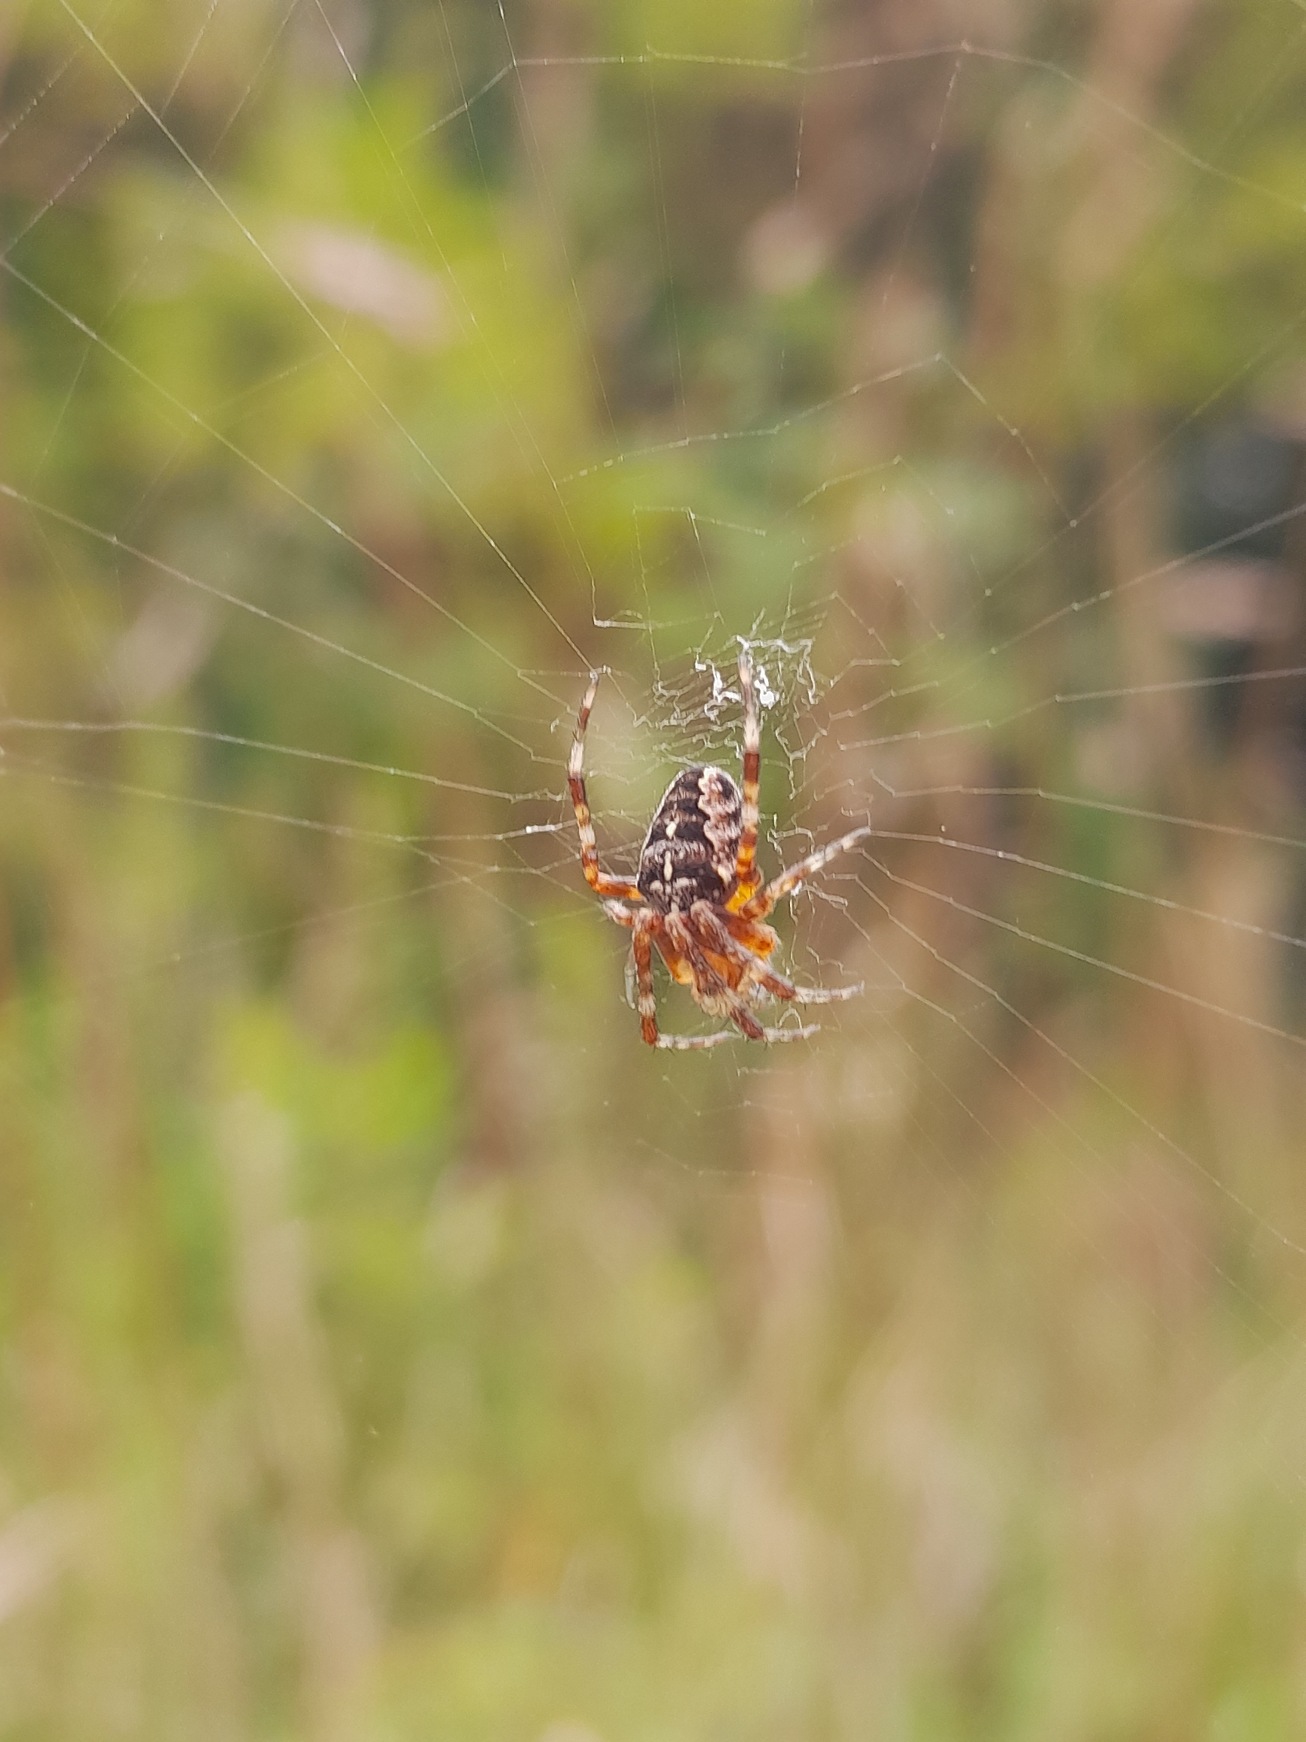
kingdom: Animalia
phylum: Arthropoda
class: Arachnida
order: Araneae
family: Araneidae
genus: Araneus
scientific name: Araneus diadematus
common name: Korsedderkop
